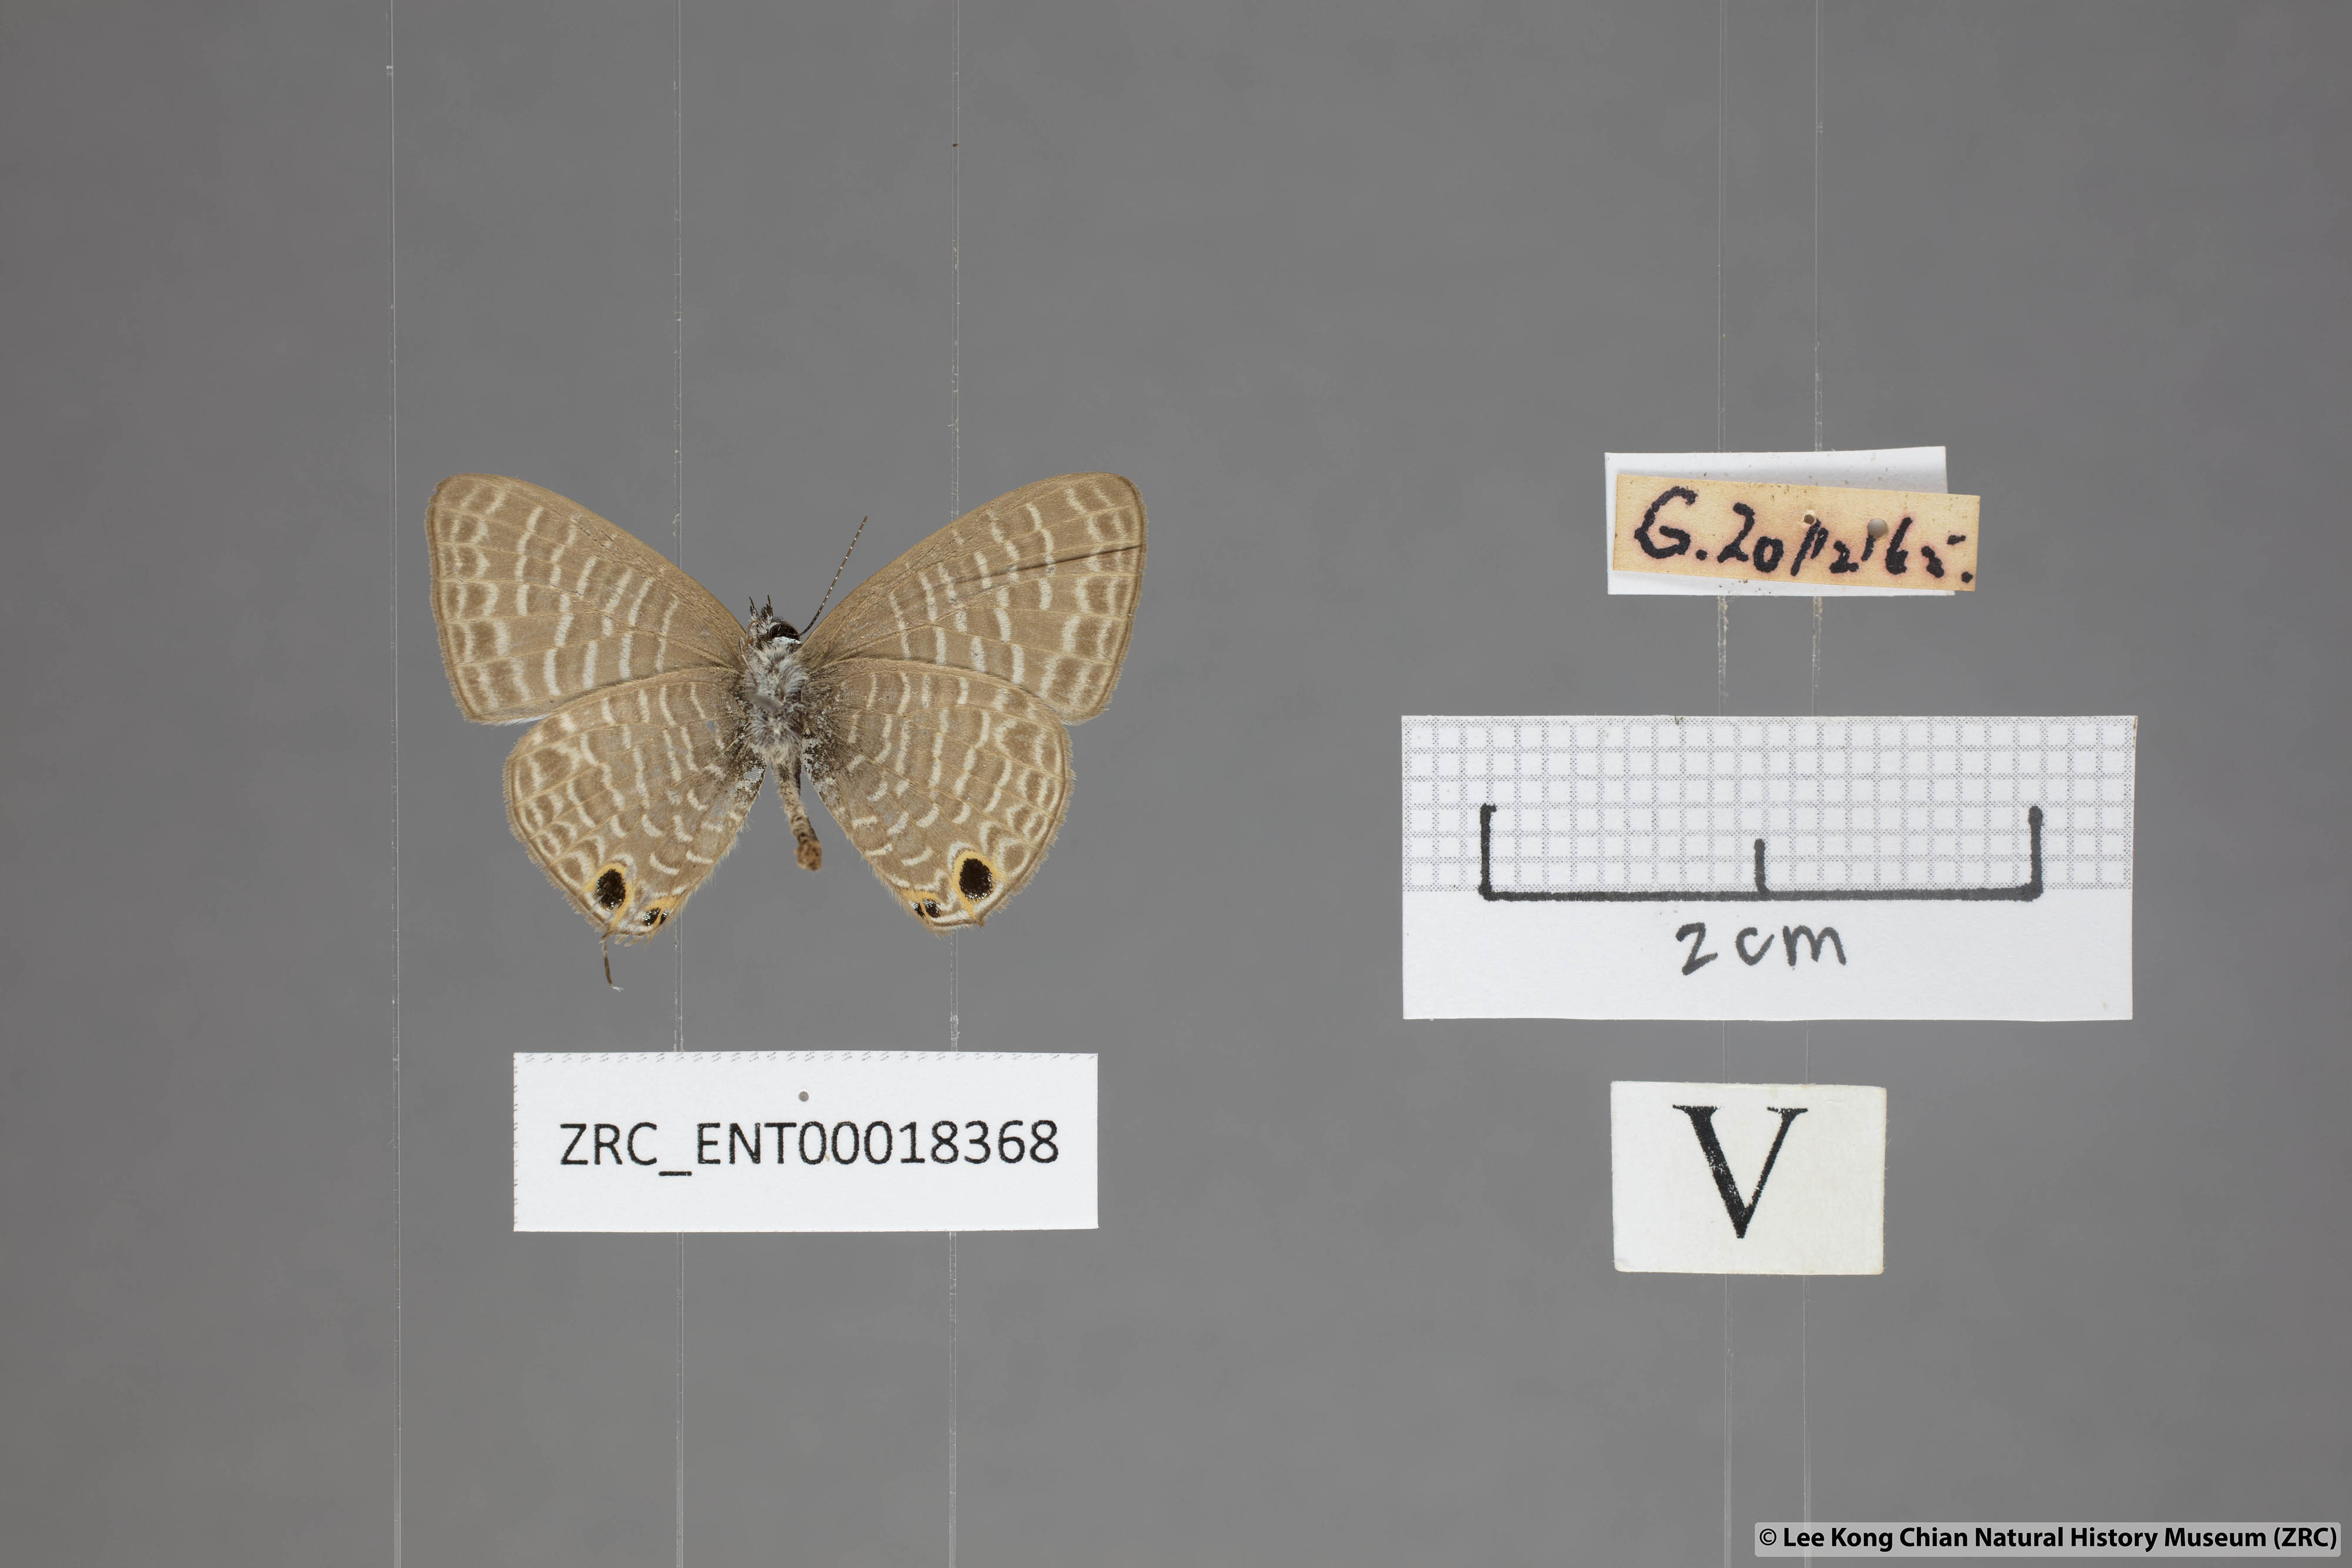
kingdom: Animalia
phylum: Arthropoda
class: Insecta
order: Lepidoptera
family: Lycaenidae
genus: Nacaduba
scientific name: Nacaduba kurava
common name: Transparent 6-line blue
